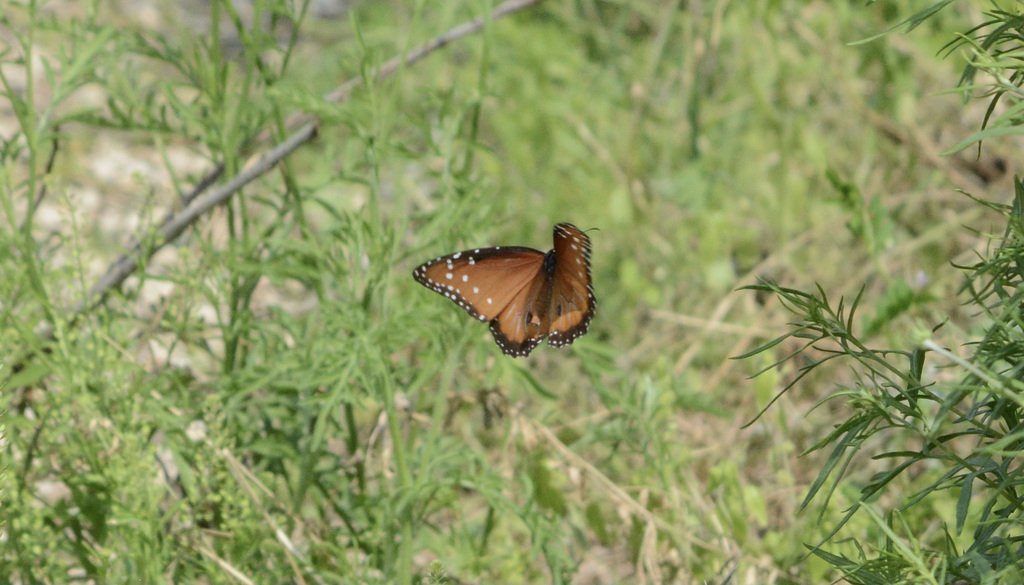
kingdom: Animalia
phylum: Arthropoda
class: Insecta
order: Lepidoptera
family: Nymphalidae
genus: Danaus
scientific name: Danaus gilippus
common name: Queen
